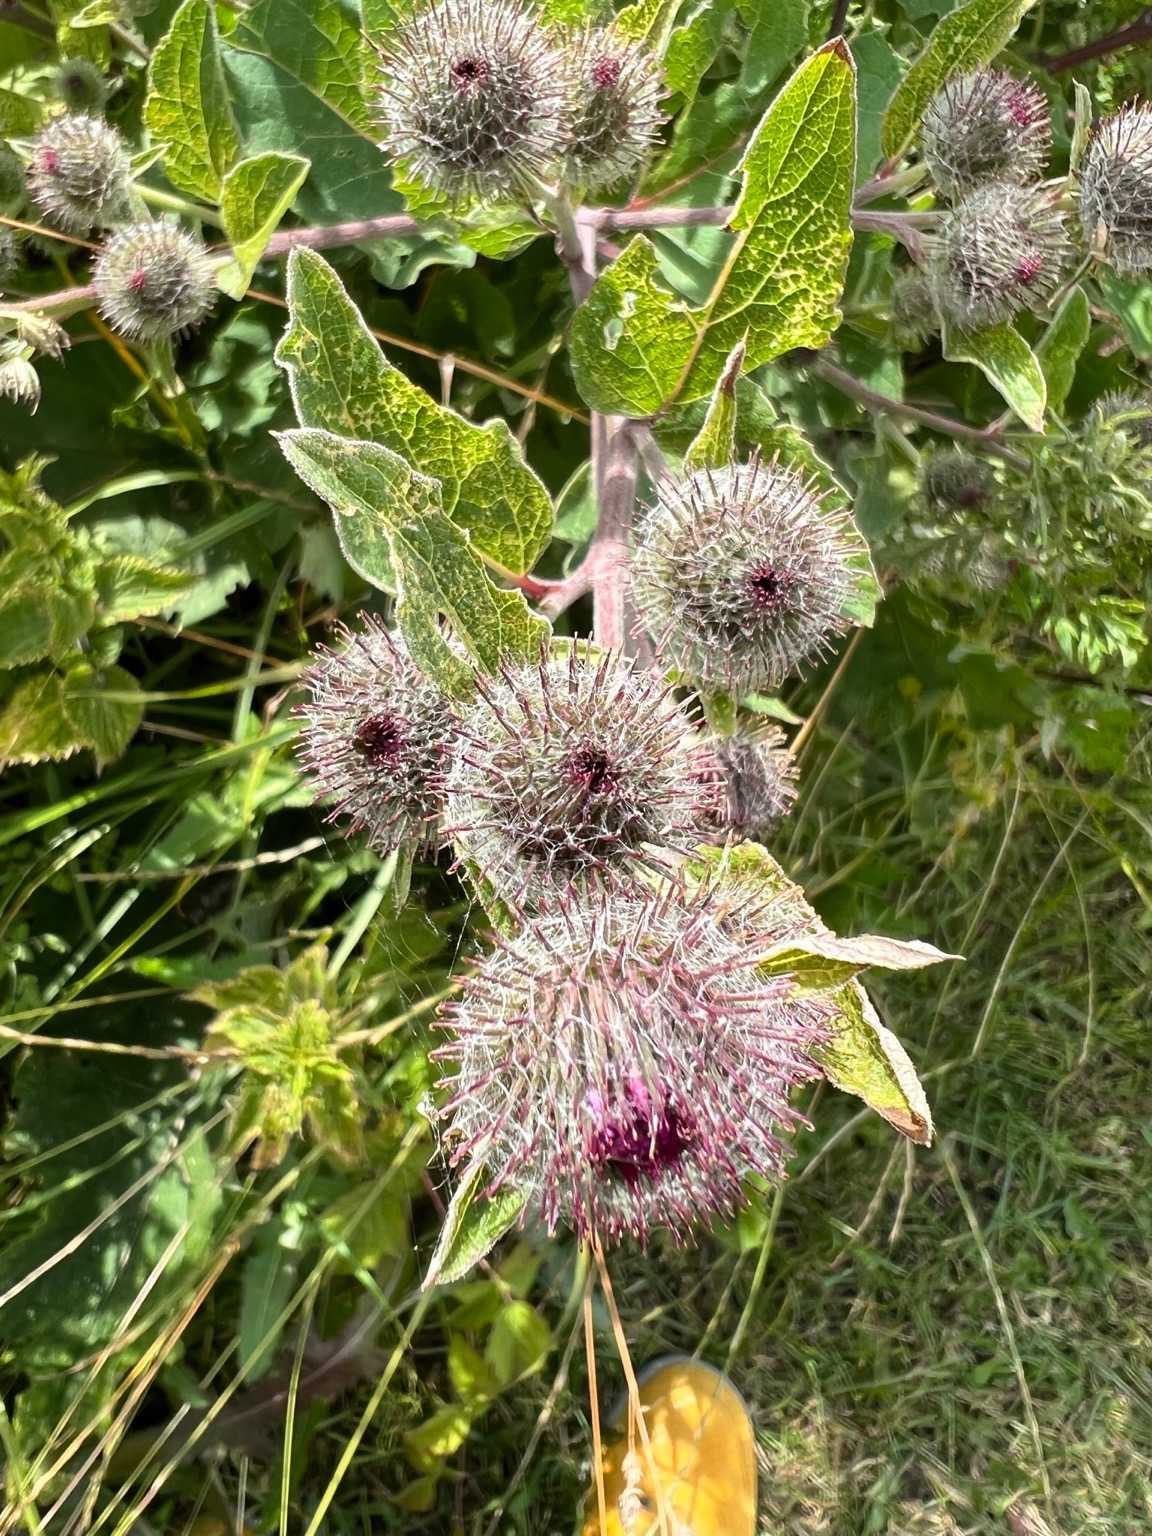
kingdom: Plantae
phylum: Tracheophyta
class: Magnoliopsida
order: Asterales
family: Asteraceae
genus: Arctium
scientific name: Arctium tomentosum
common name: Filtet burre
